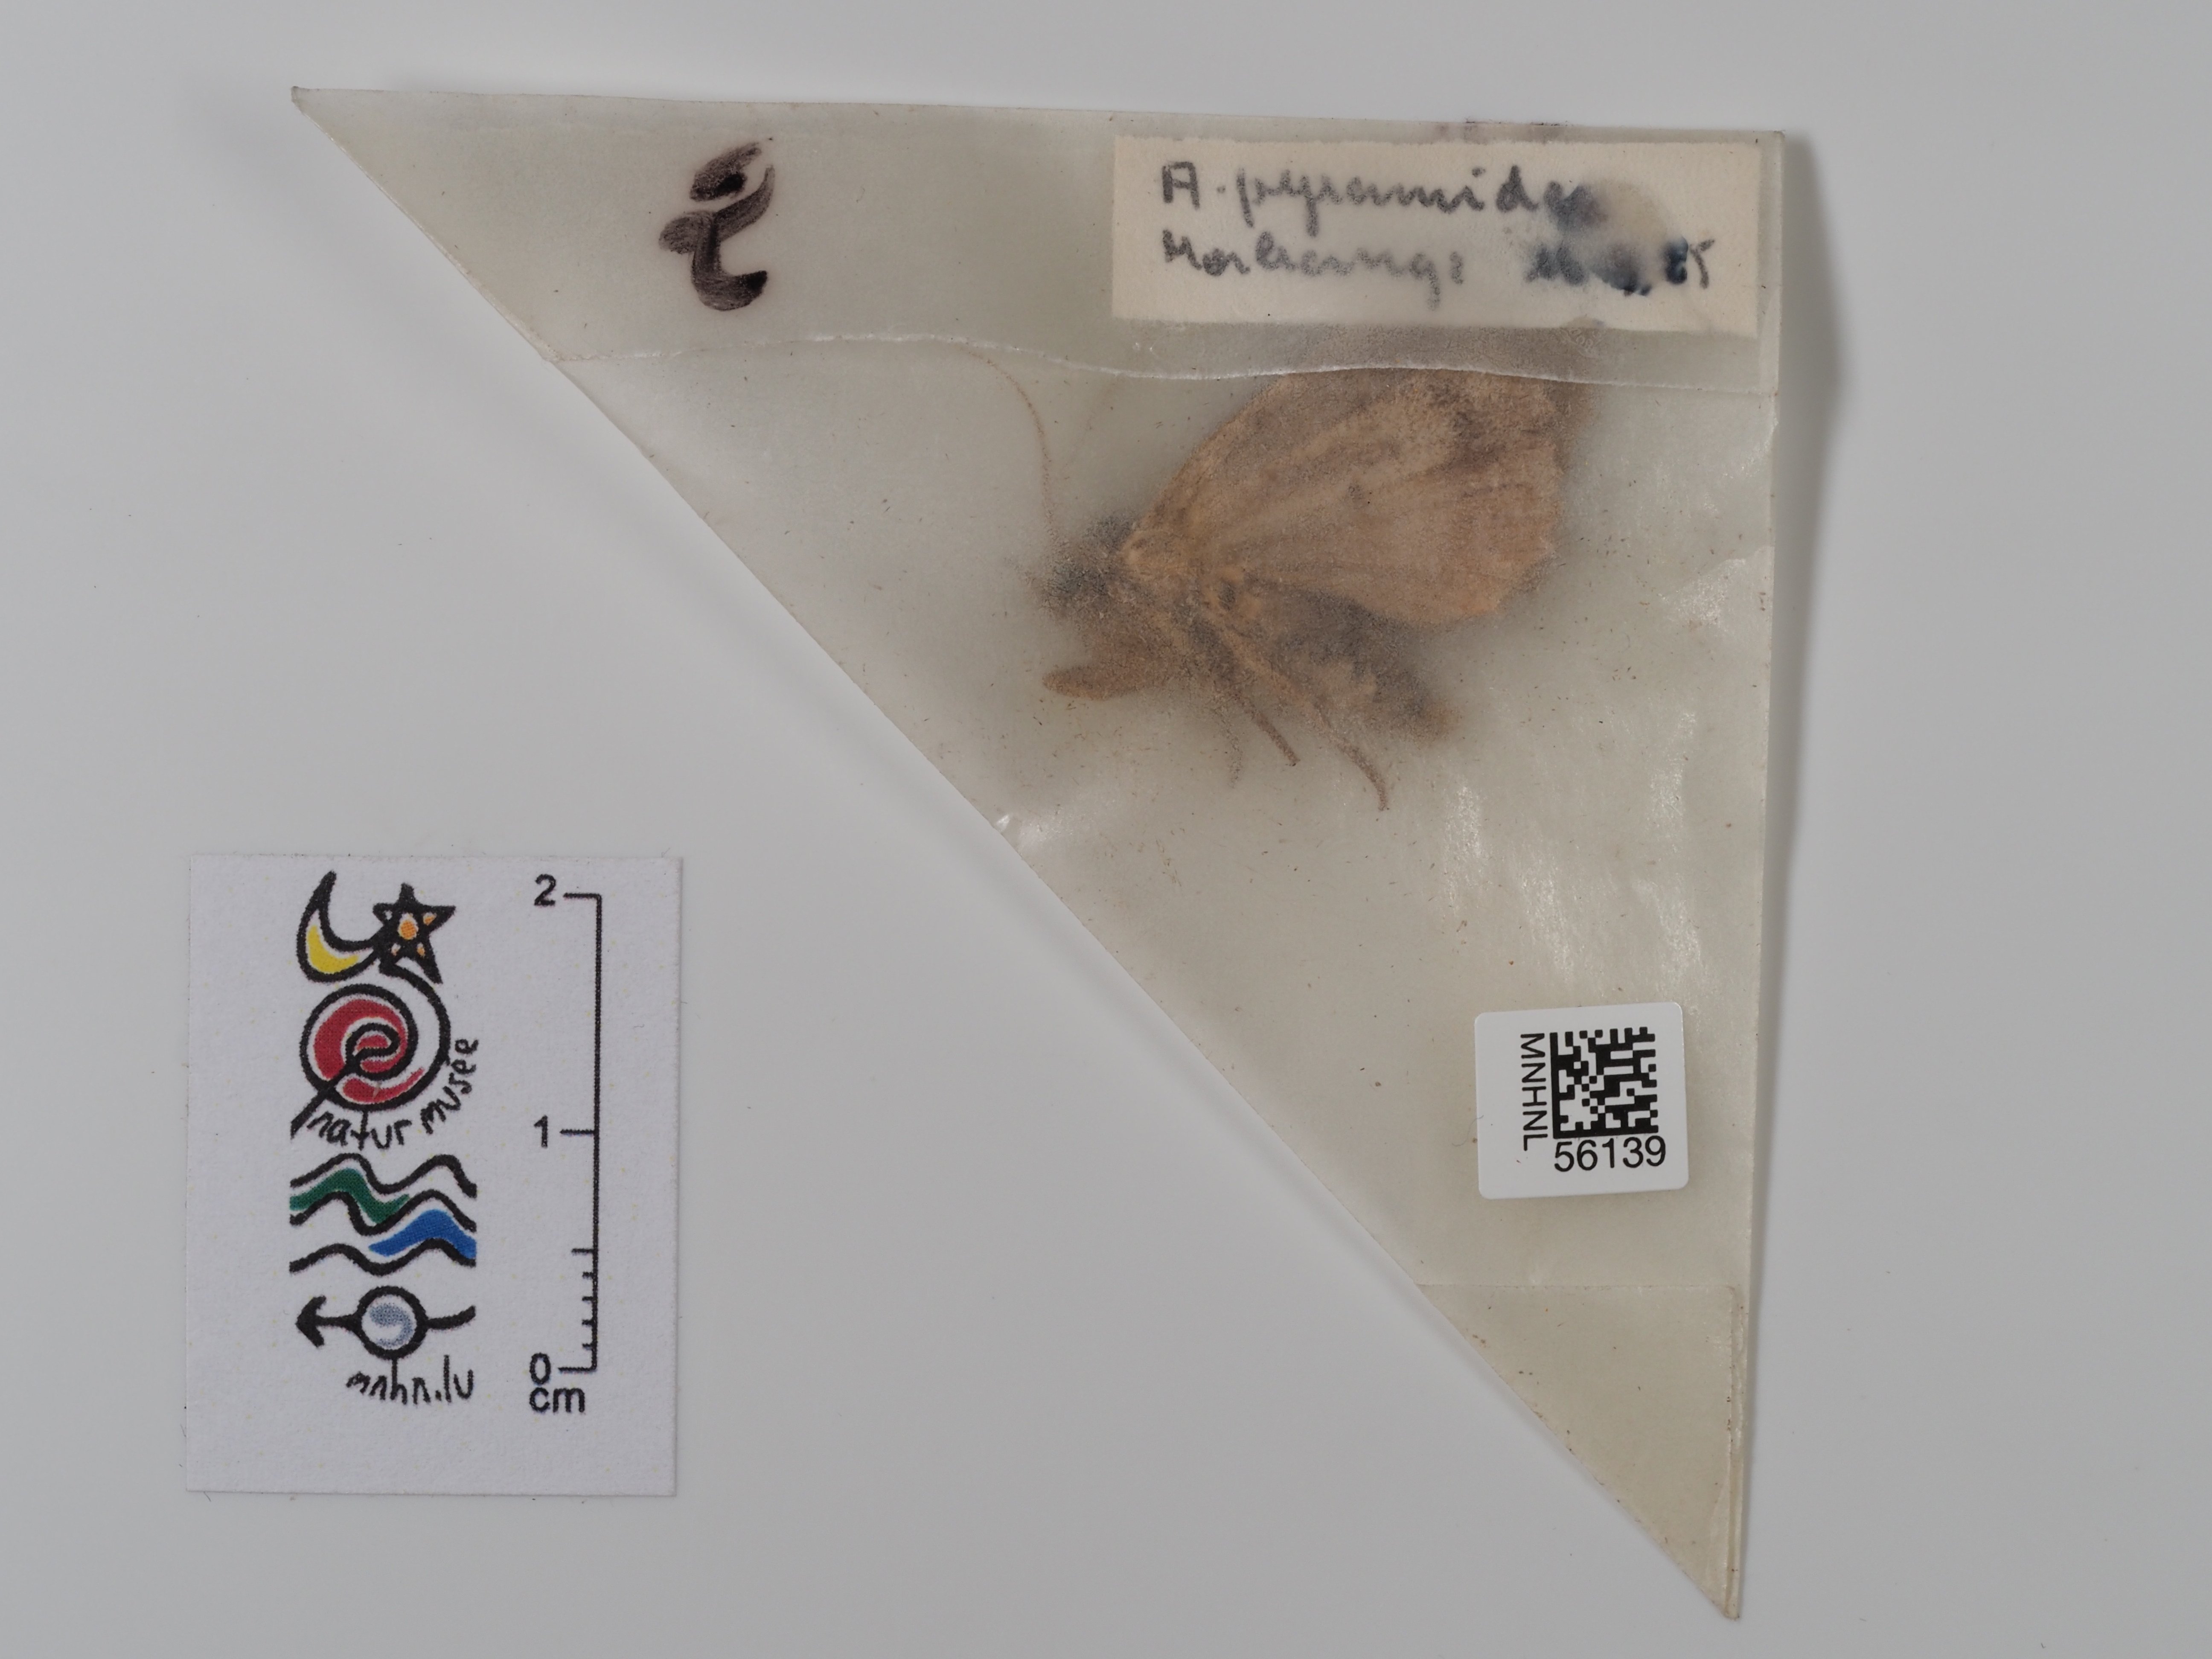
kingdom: Animalia
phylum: Arthropoda
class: Insecta
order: Lepidoptera
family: Noctuidae
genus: Amphipyra
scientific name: Amphipyra pyramidea
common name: Copper underwing
